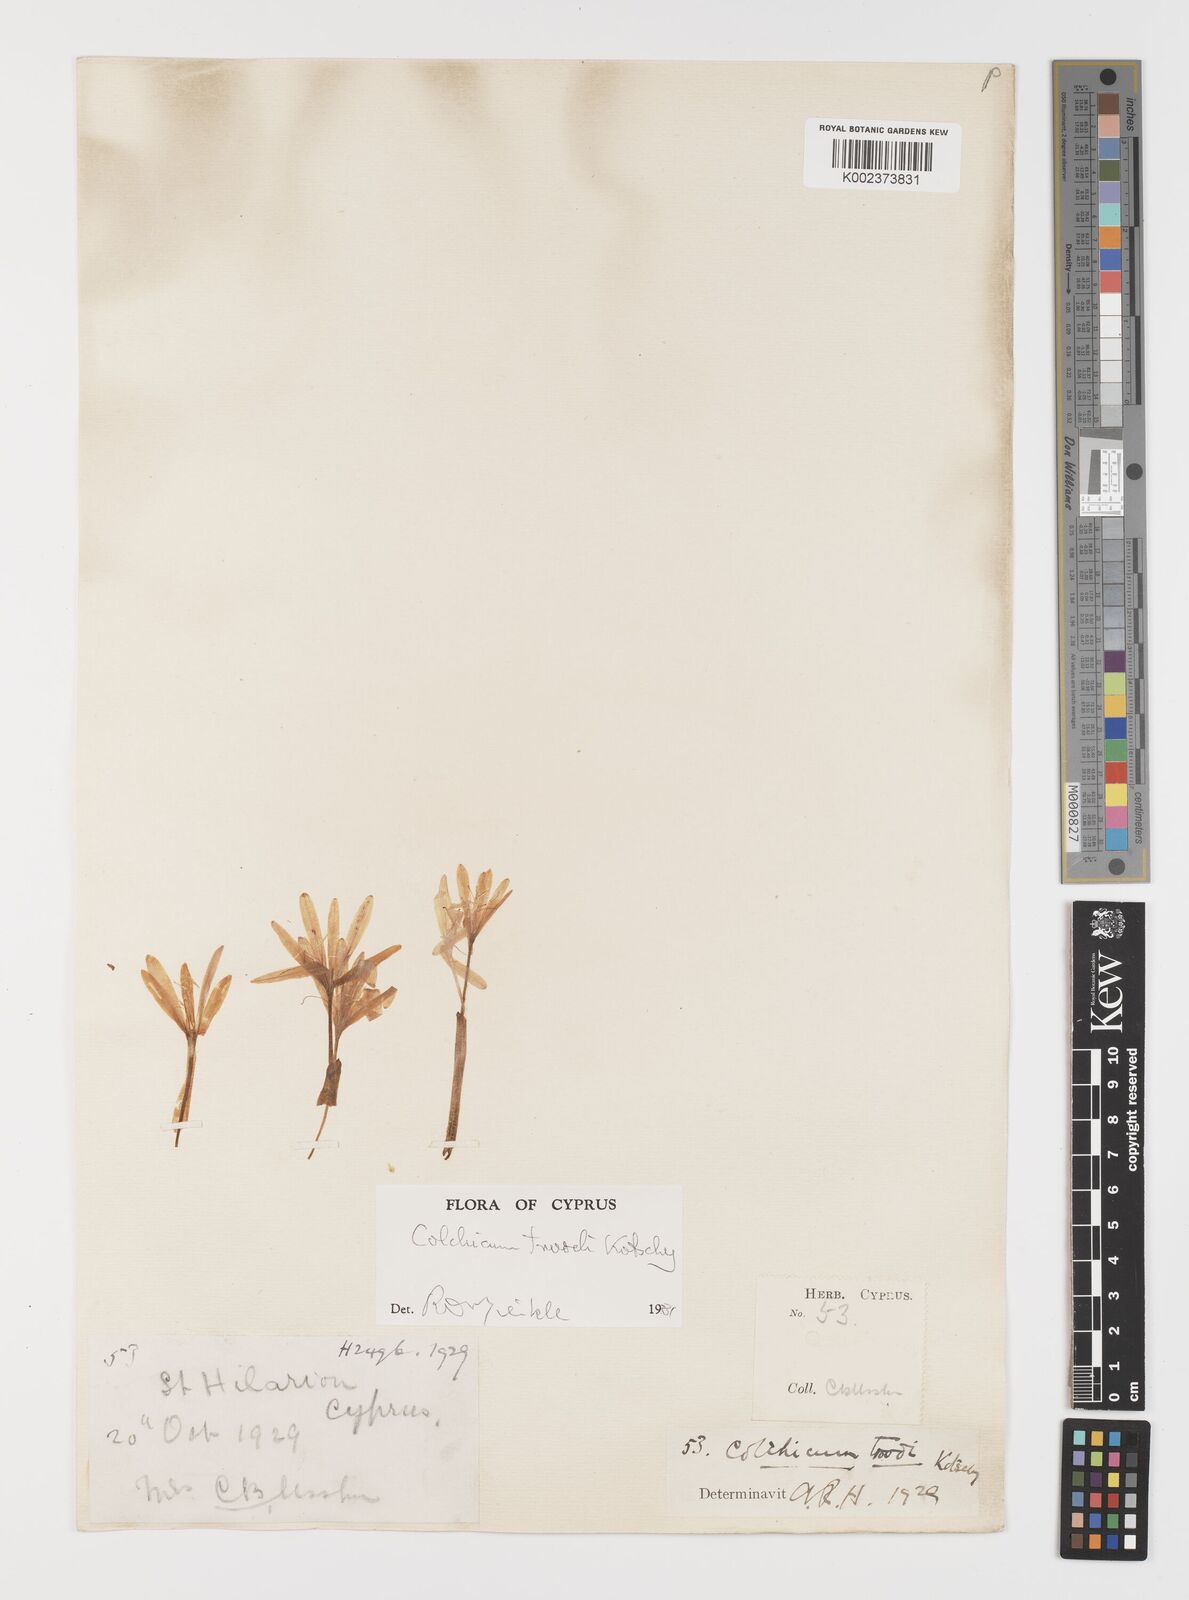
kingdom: Plantae
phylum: Tracheophyta
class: Liliopsida
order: Liliales
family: Colchicaceae
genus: Colchicum
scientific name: Colchicum troodi
